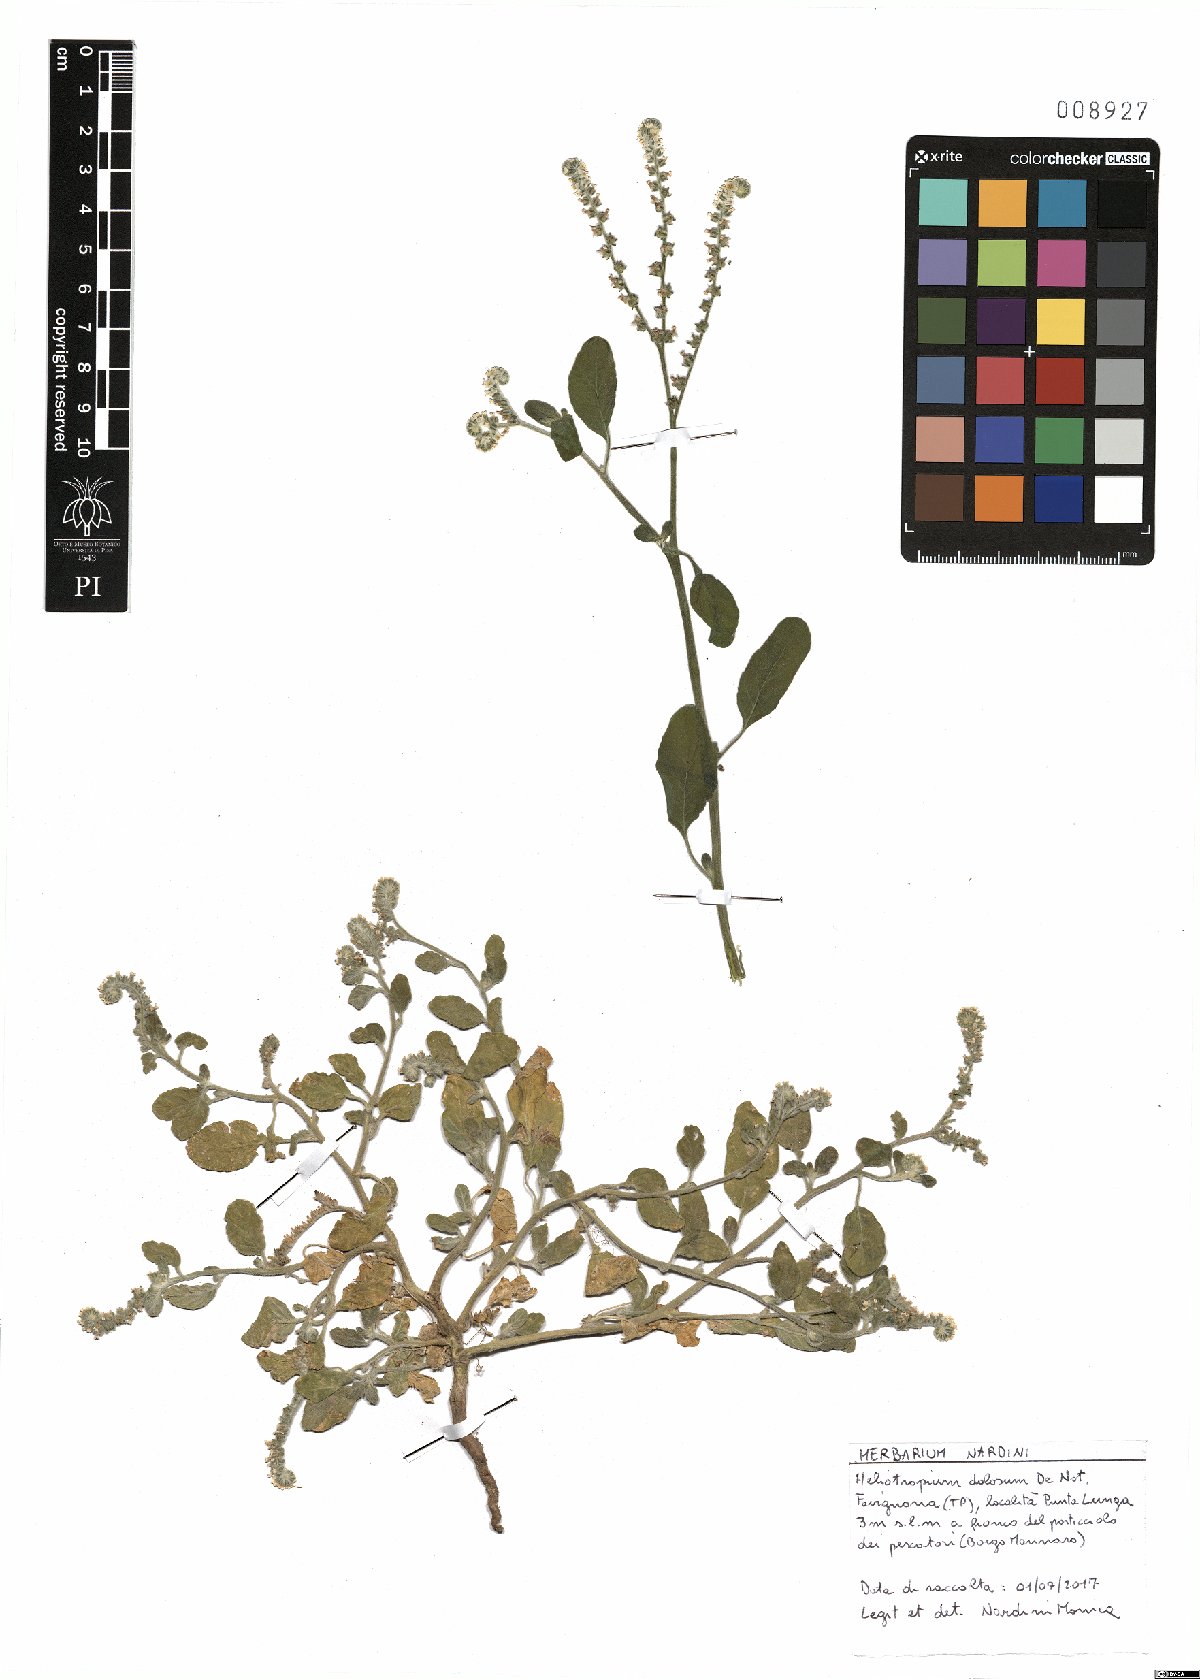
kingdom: Plantae
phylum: Tracheophyta
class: Magnoliopsida
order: Boraginales
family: Heliotropiaceae
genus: Heliotropium
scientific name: Heliotropium dolosum
